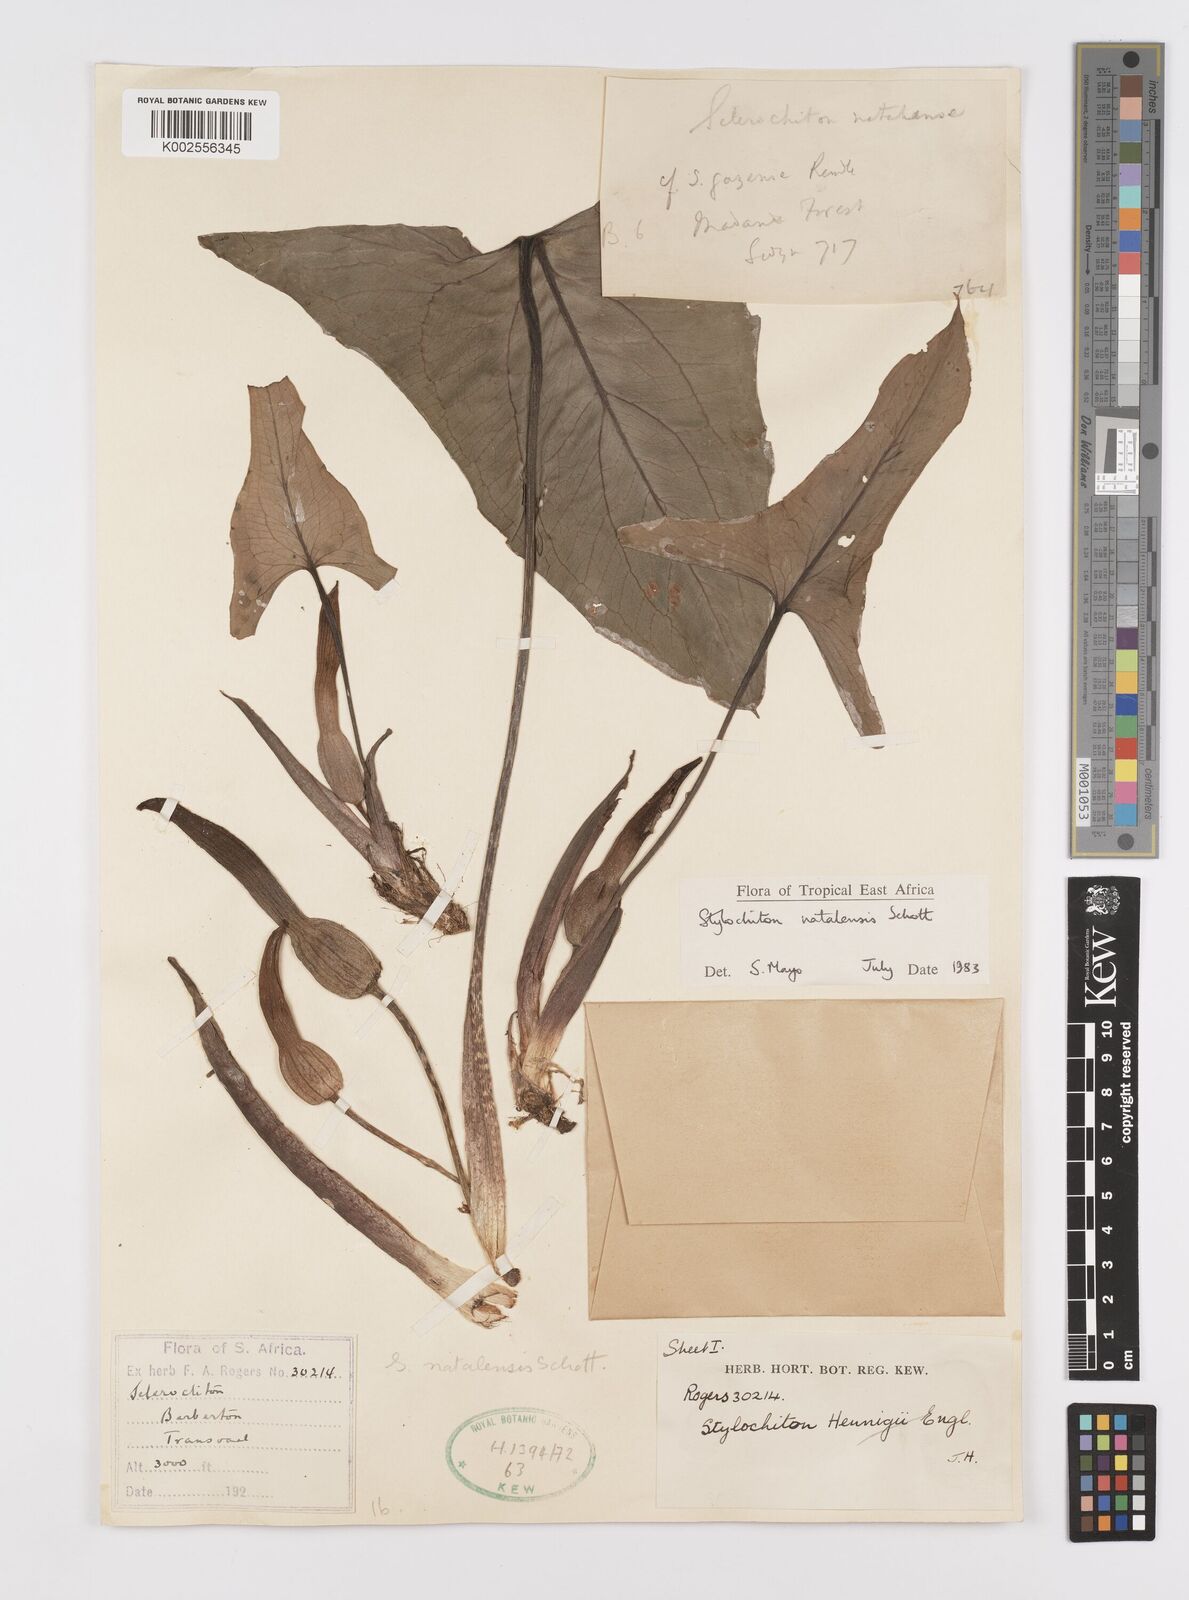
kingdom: Plantae
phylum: Tracheophyta
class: Liliopsida
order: Alismatales
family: Araceae
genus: Stylochaeton
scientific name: Stylochaeton natalense
